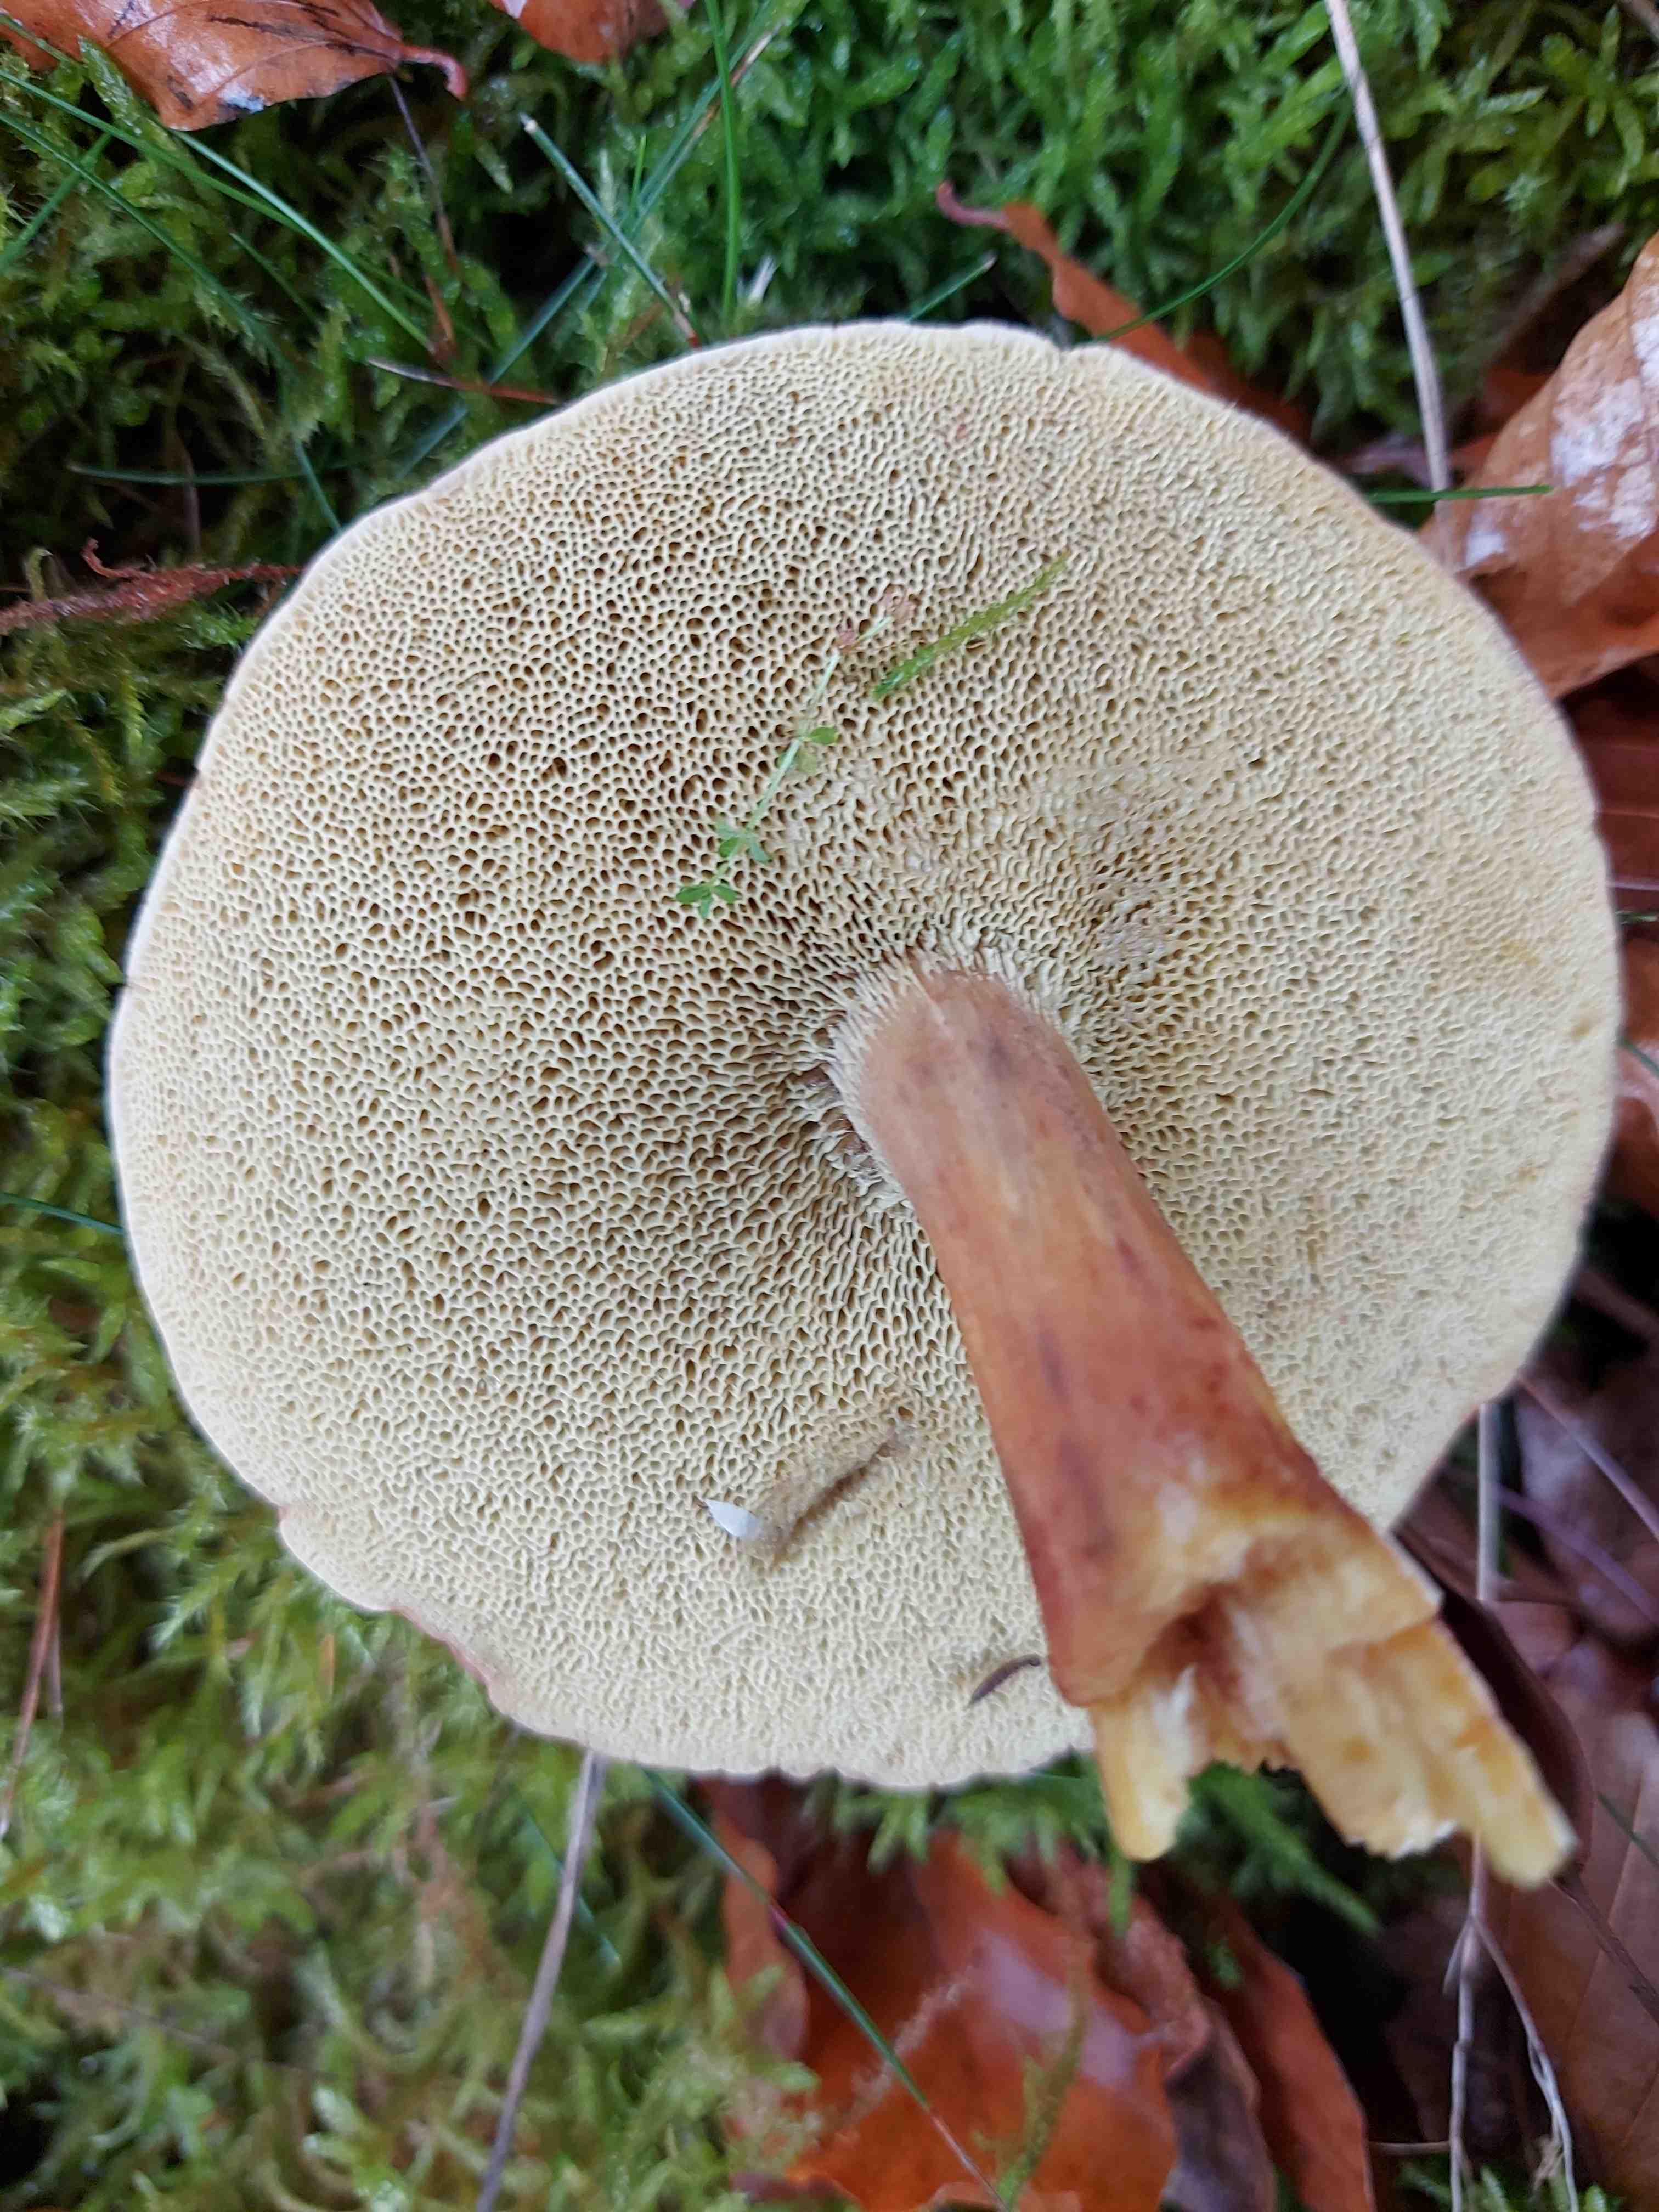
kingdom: Fungi
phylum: Basidiomycota
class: Agaricomycetes
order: Boletales
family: Boletaceae
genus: Xerocomellus
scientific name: Xerocomellus pruinatus
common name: dugget rørhat
